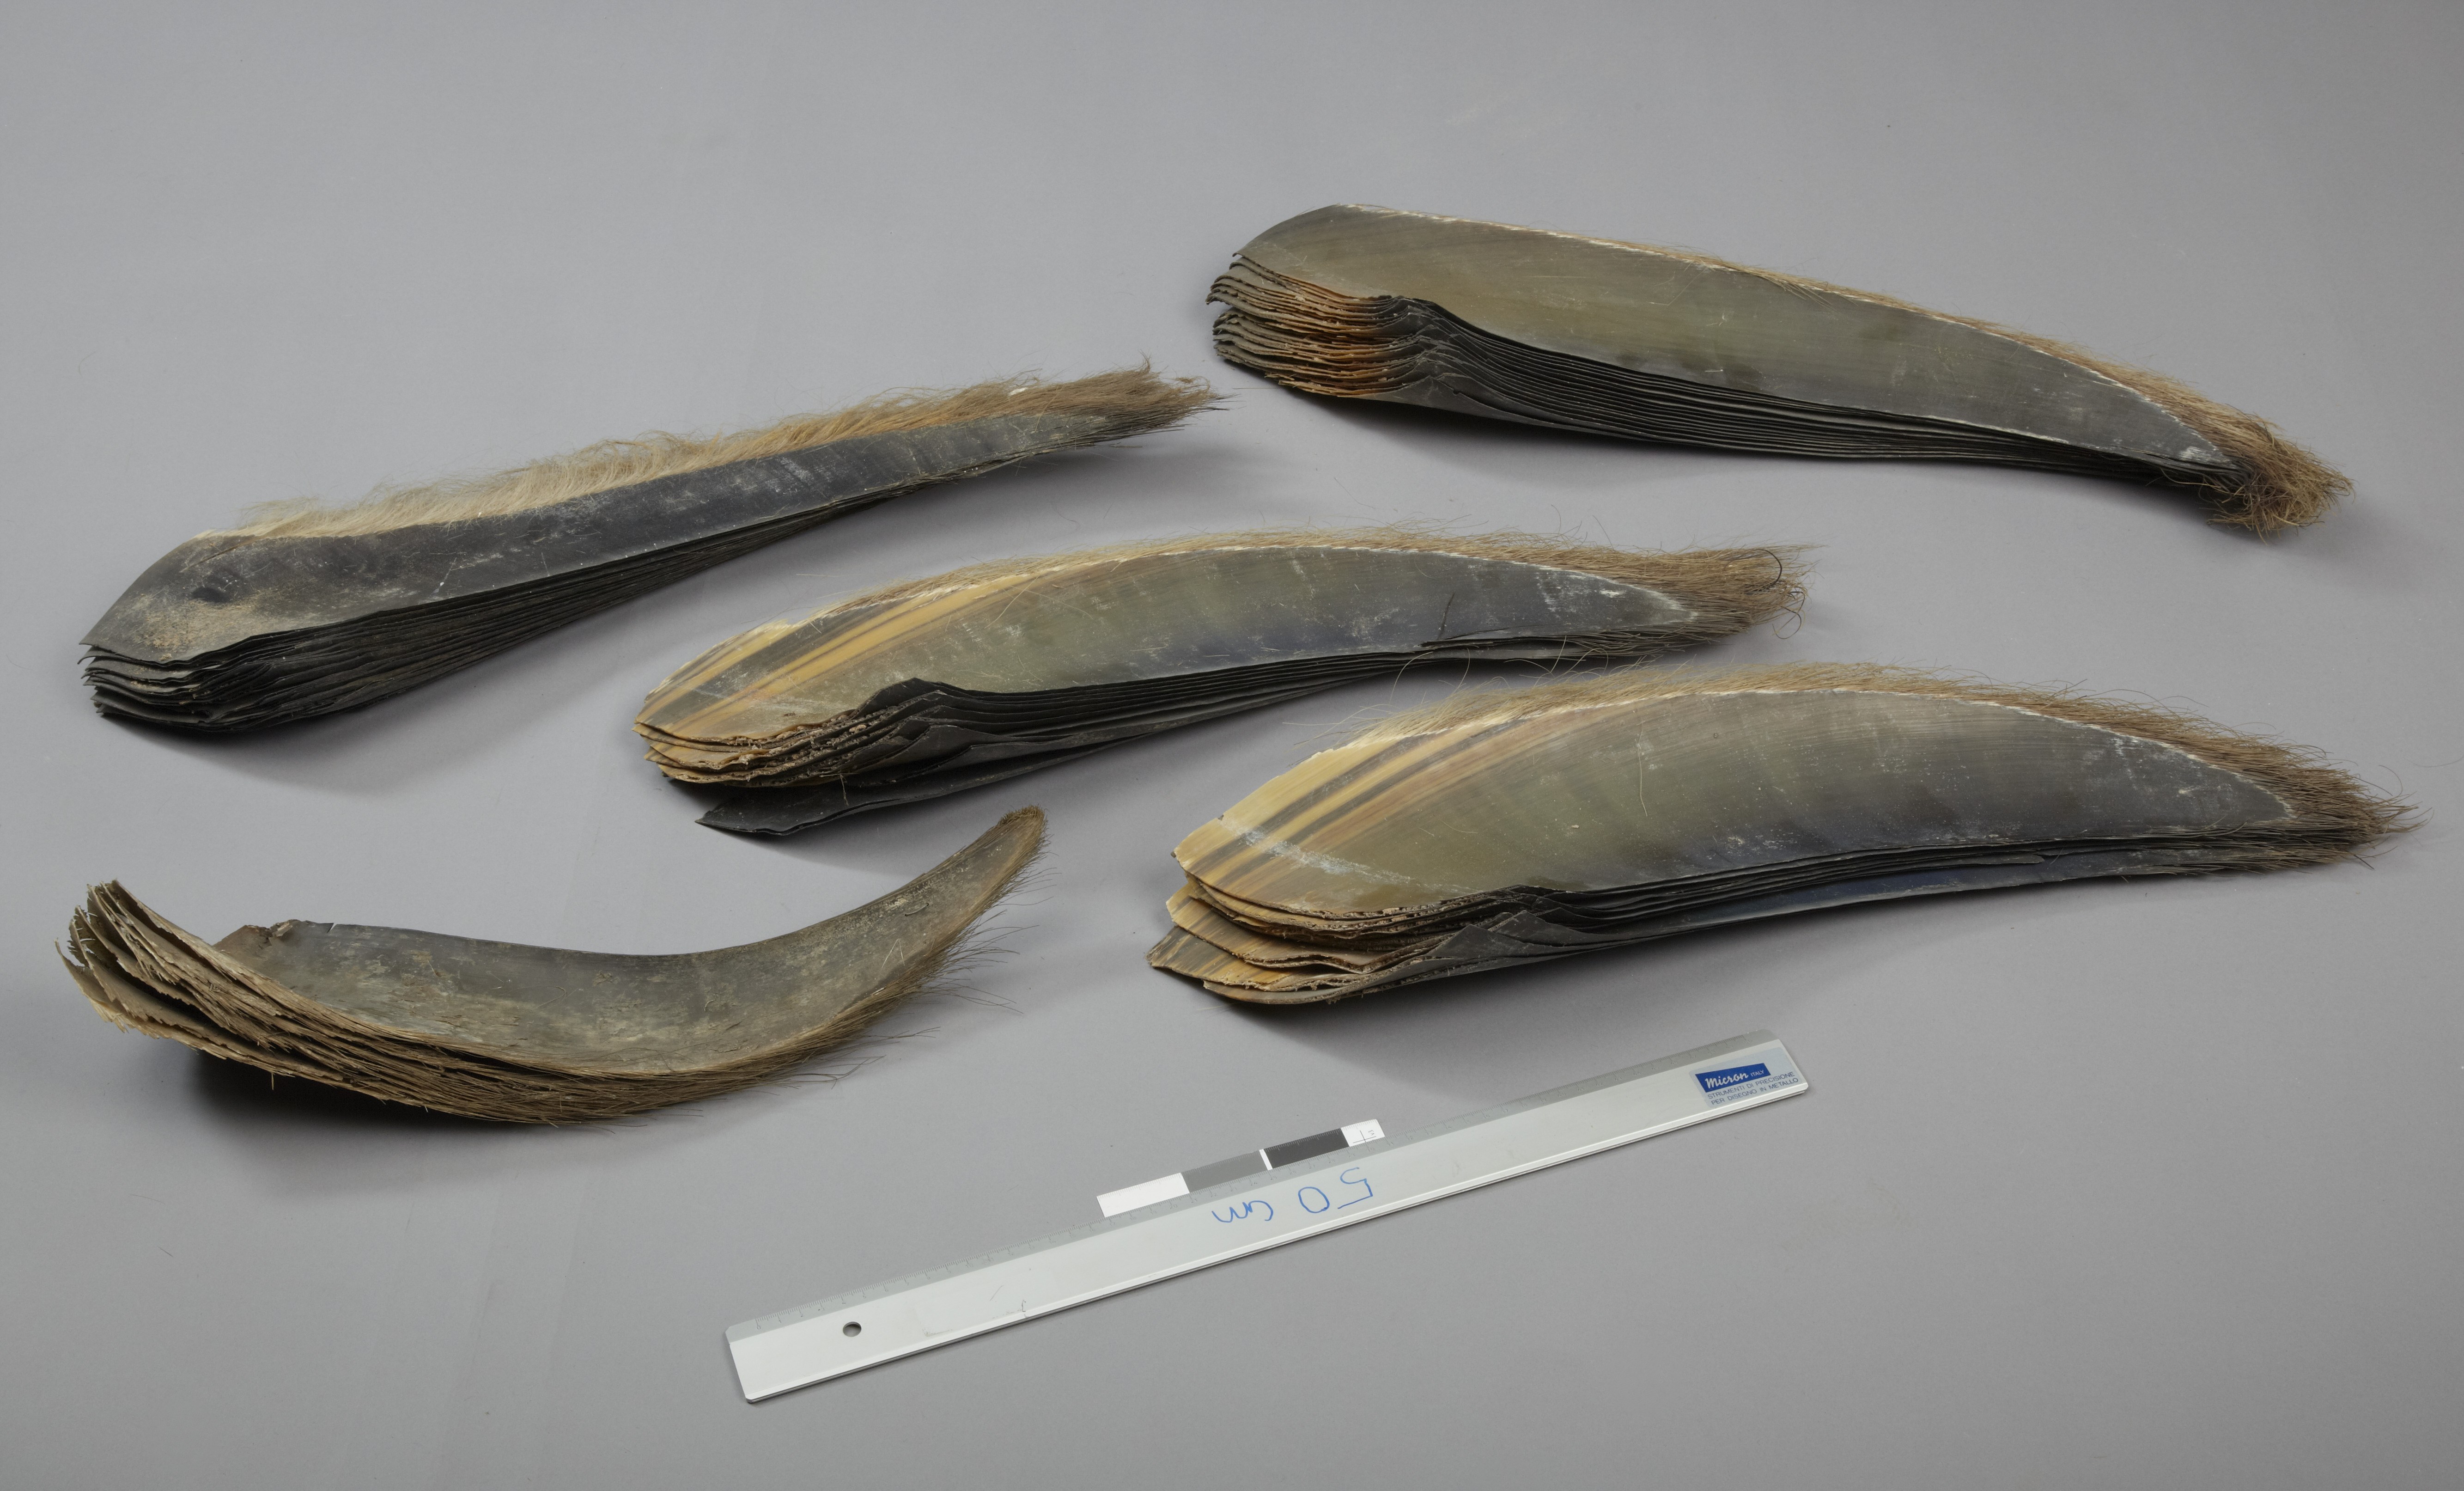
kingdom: Animalia
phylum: Chordata
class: Mammalia
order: Cetacea
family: Balaenopteridae
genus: Balaenoptera
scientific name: Balaenoptera borealis
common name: Sei whale
